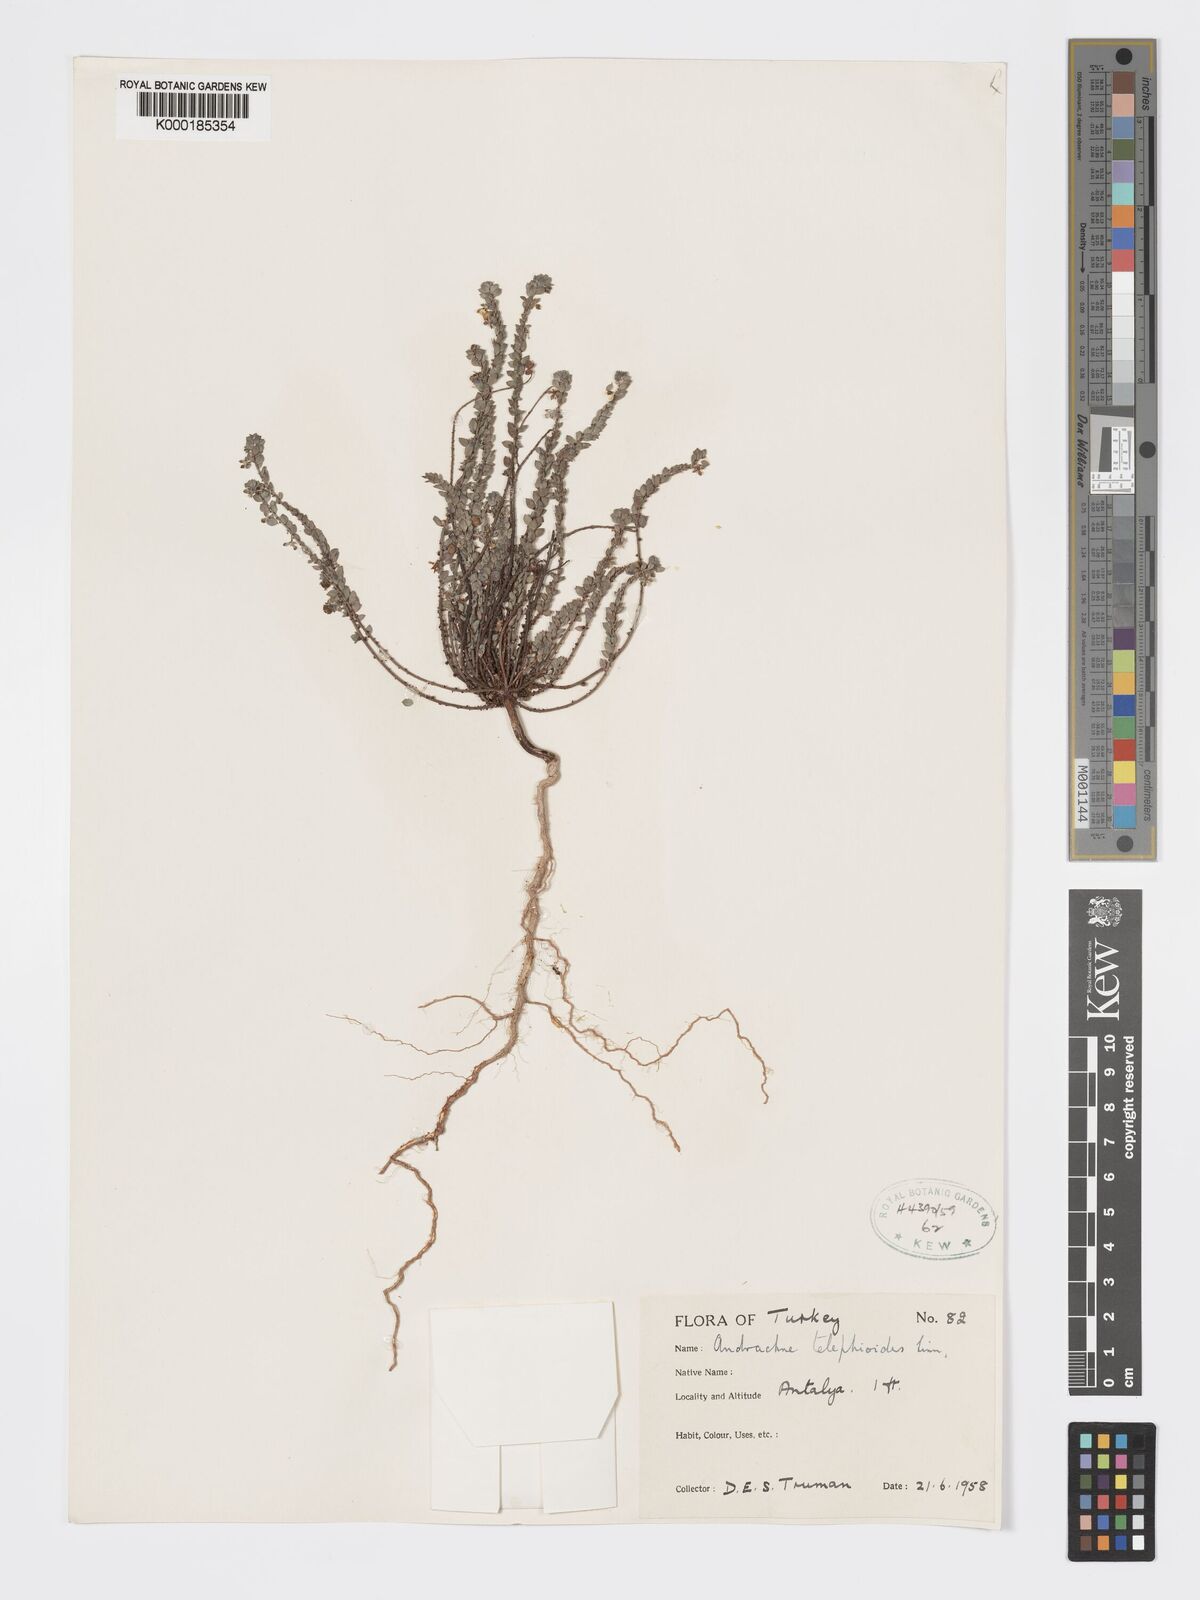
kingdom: Plantae
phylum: Tracheophyta
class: Magnoliopsida
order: Malpighiales
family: Phyllanthaceae
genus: Andrachne
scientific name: Andrachne telephioides
